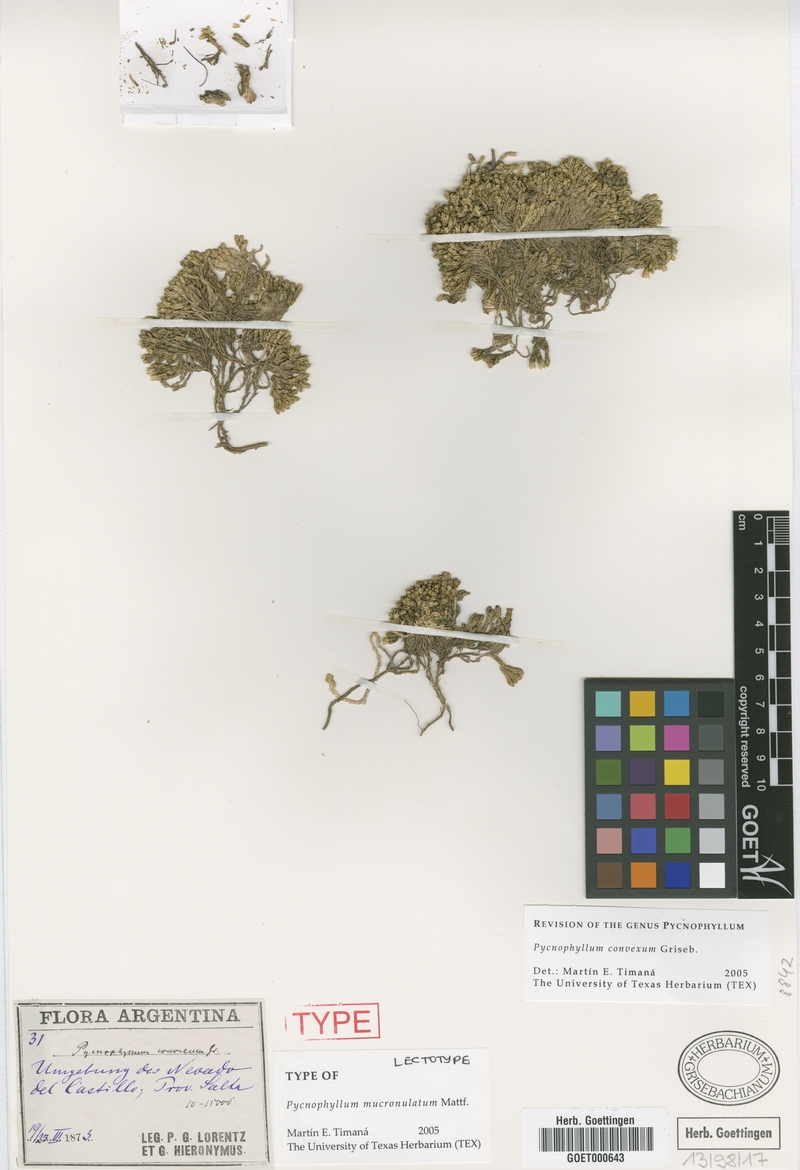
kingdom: Plantae
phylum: Tracheophyta
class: Magnoliopsida
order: Caryophyllales
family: Caryophyllaceae
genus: Pycnophyllum
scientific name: Pycnophyllum mucronulatum
